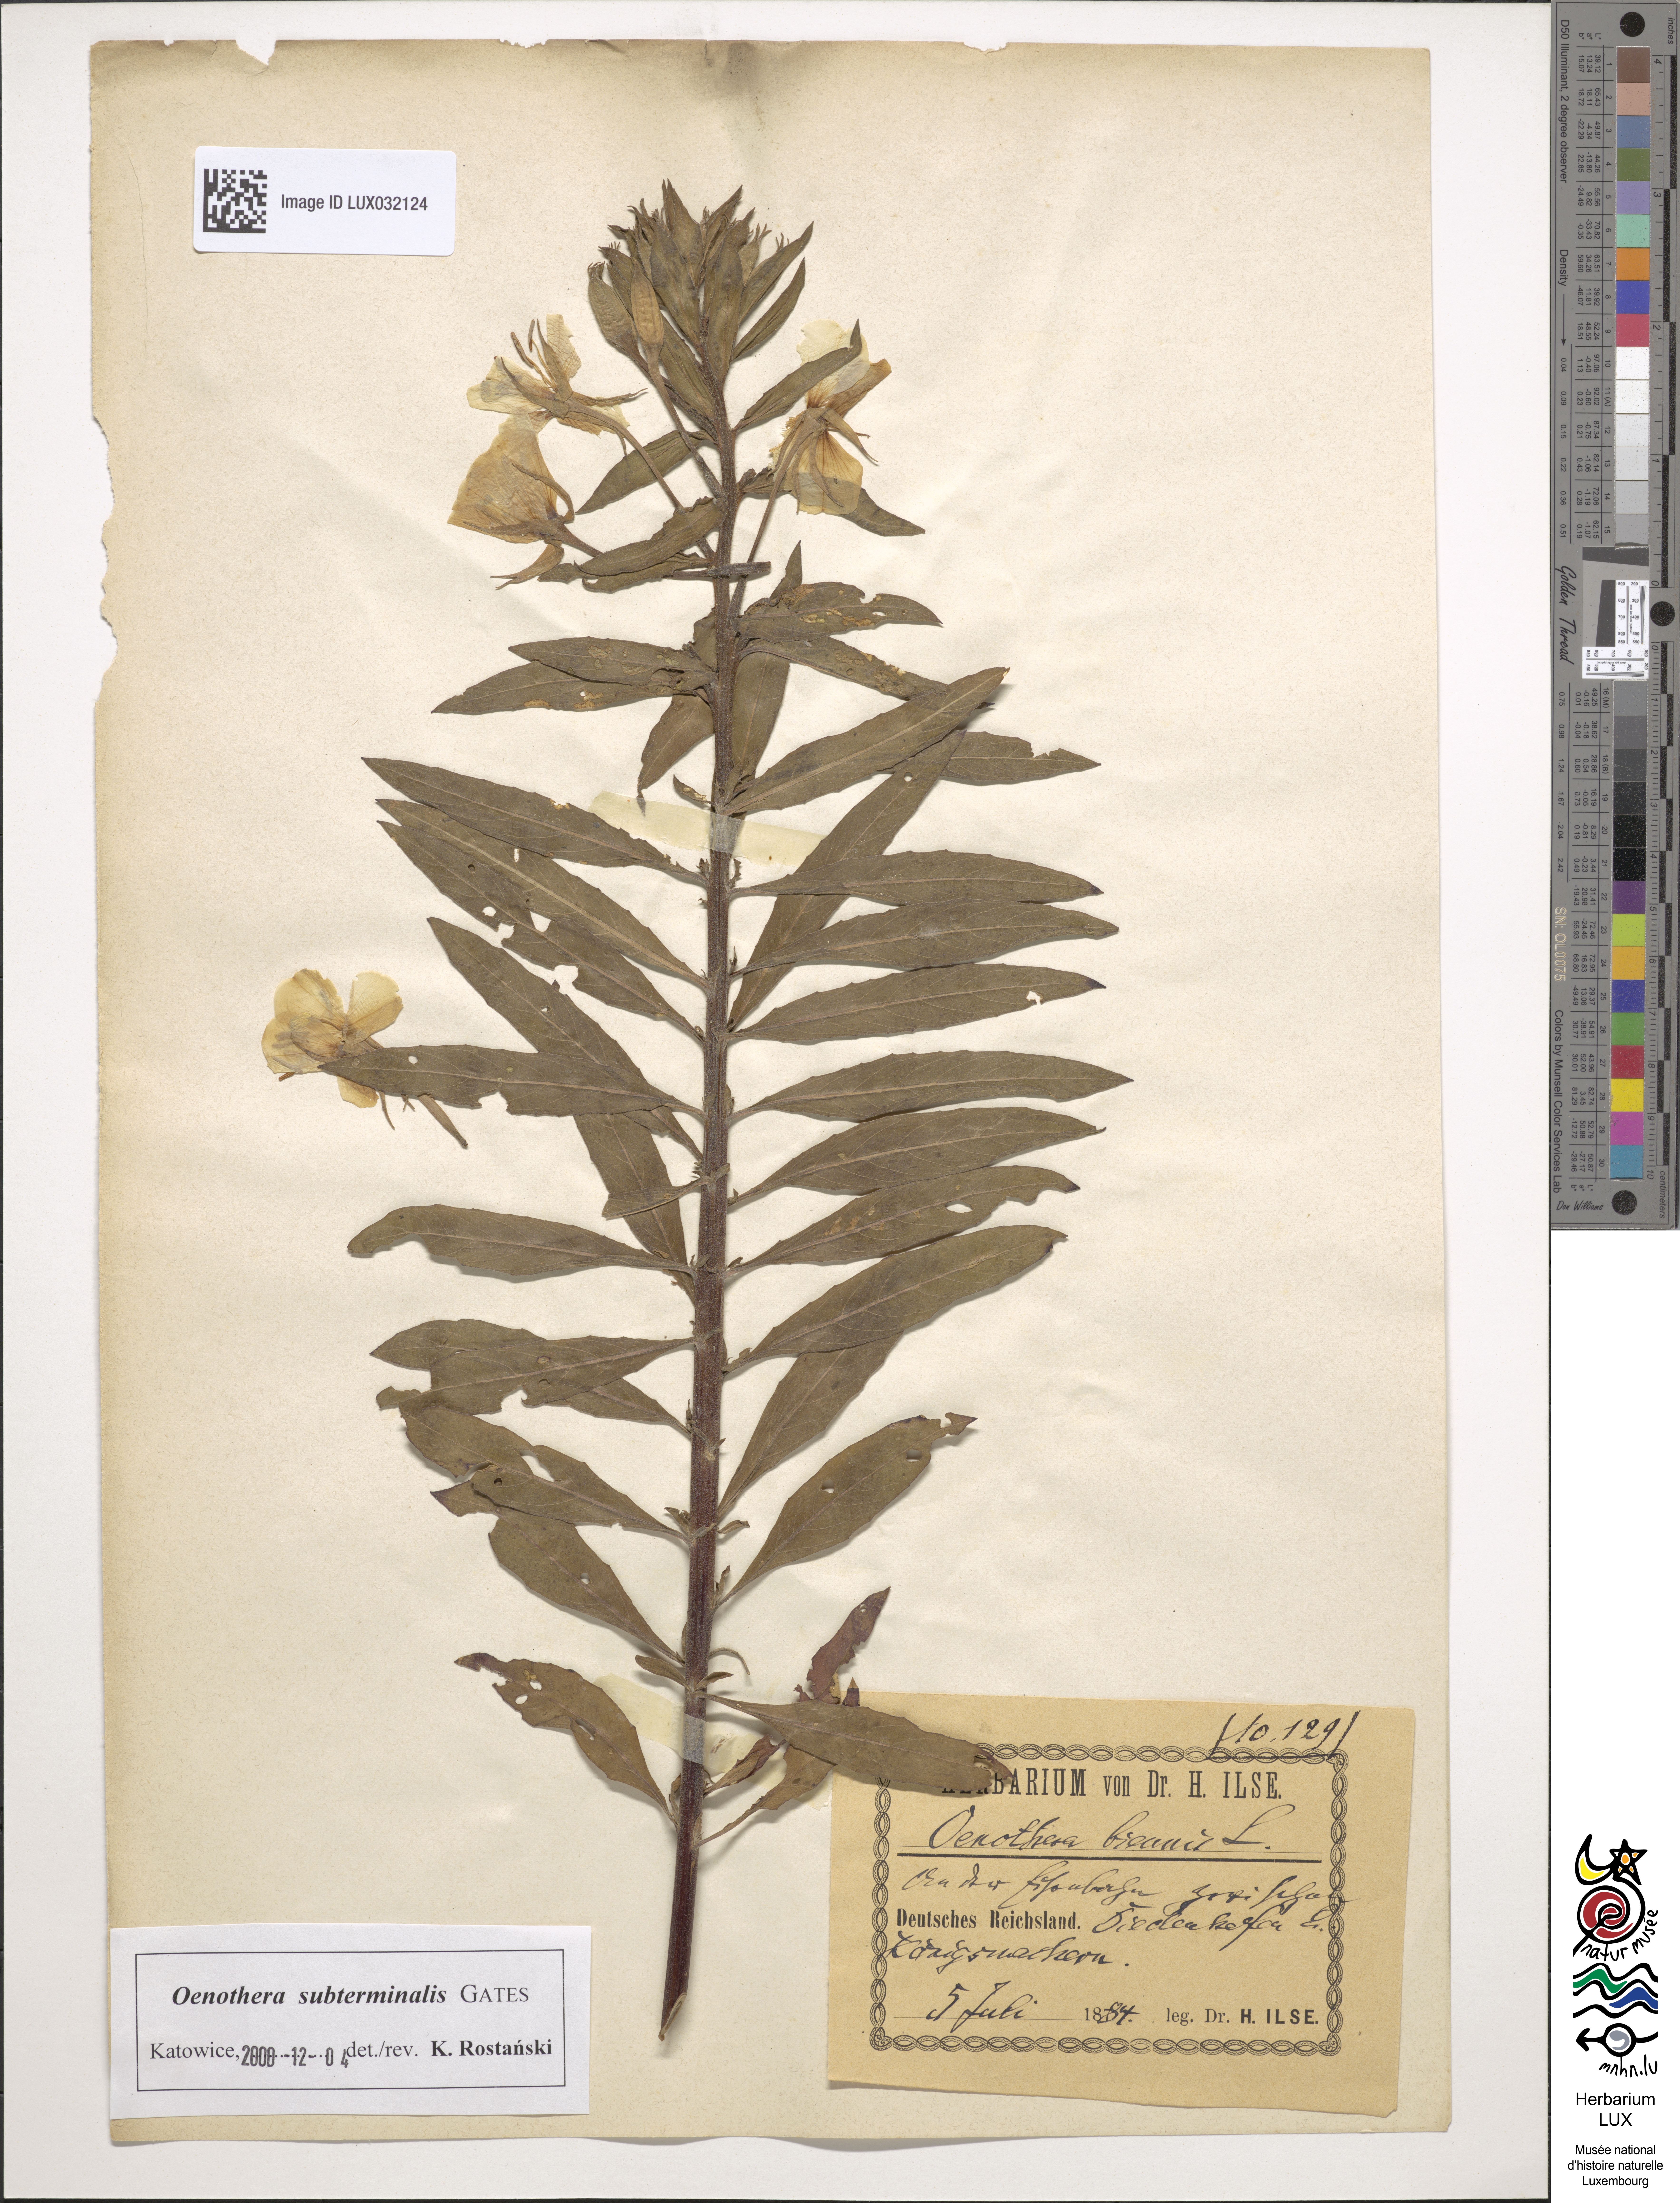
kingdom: Plantae
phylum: Tracheophyta
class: Magnoliopsida
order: Myrtales
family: Onagraceae
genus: Oenothera
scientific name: Oenothera biennis
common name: Common evening-primrose
